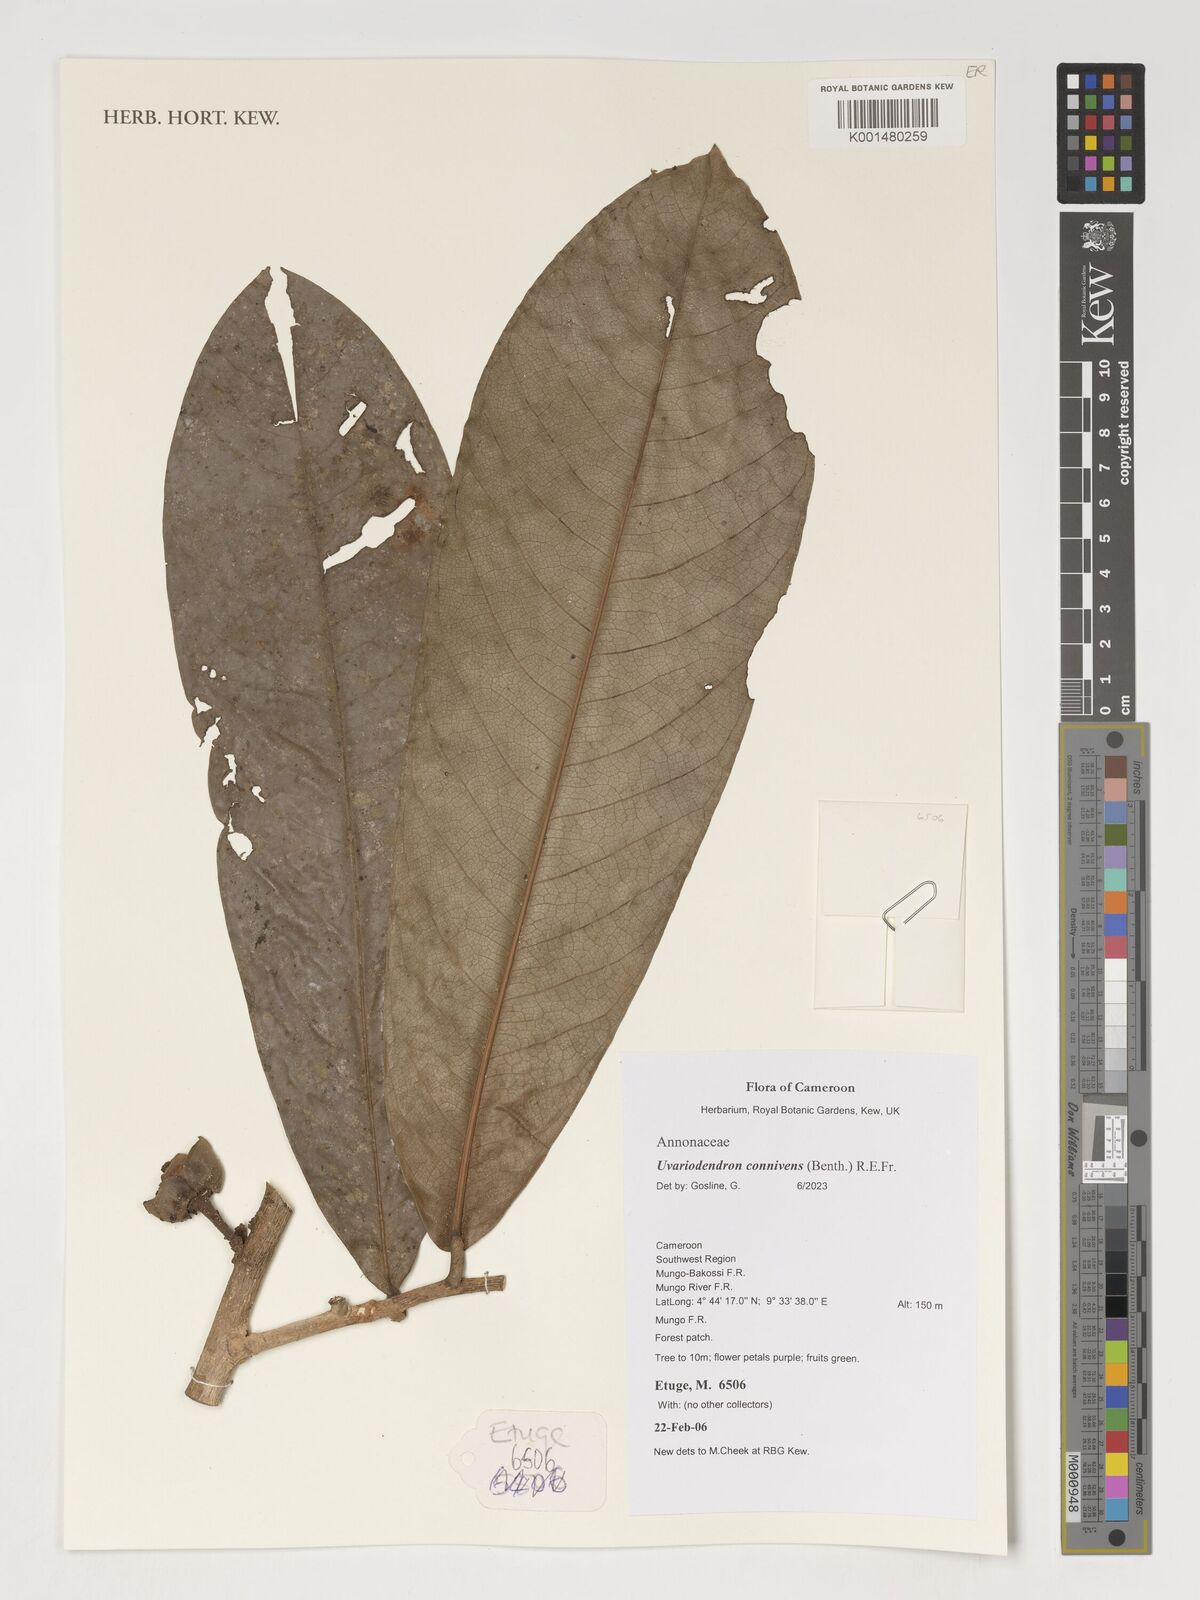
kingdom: Plantae
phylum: Tracheophyta
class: Magnoliopsida
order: Magnoliales
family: Annonaceae
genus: Uvariodendron
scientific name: Uvariodendron connivens
